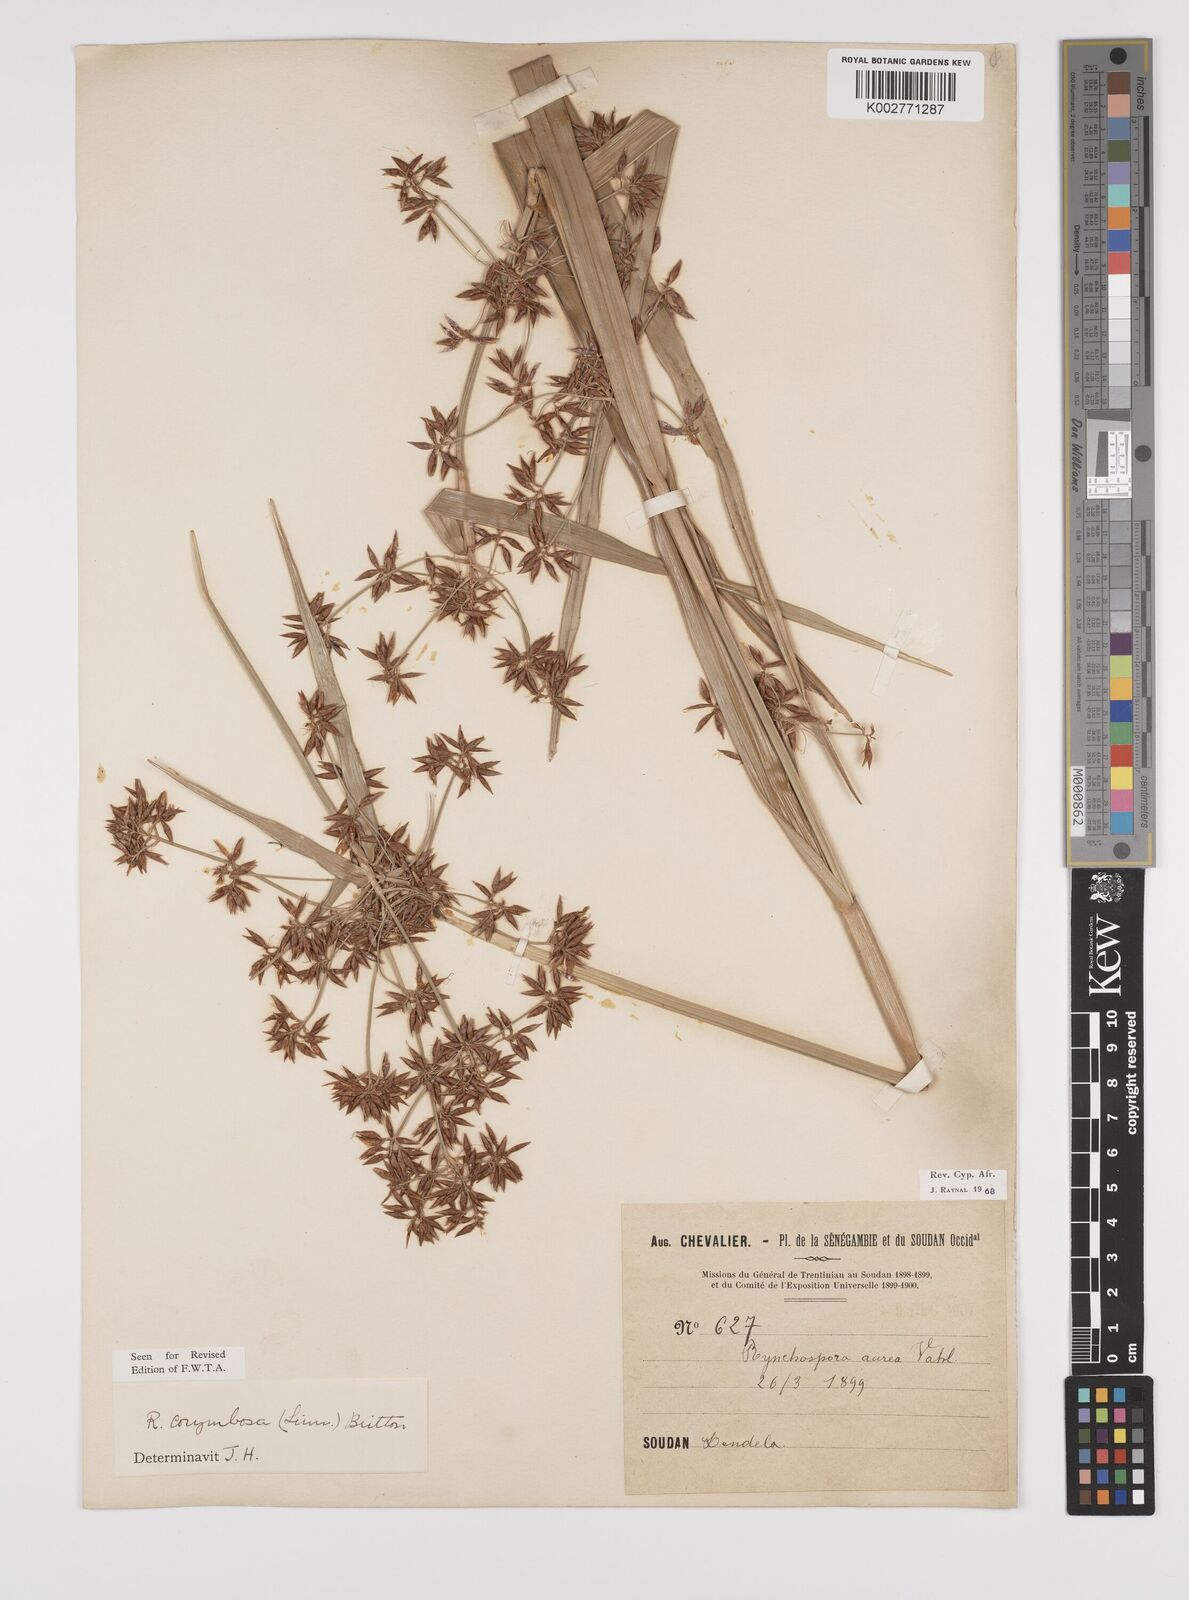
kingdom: Plantae
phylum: Tracheophyta
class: Liliopsida
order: Poales
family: Cyperaceae
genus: Rhynchospora
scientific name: Rhynchospora corymbosa
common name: Golden beak sedge
